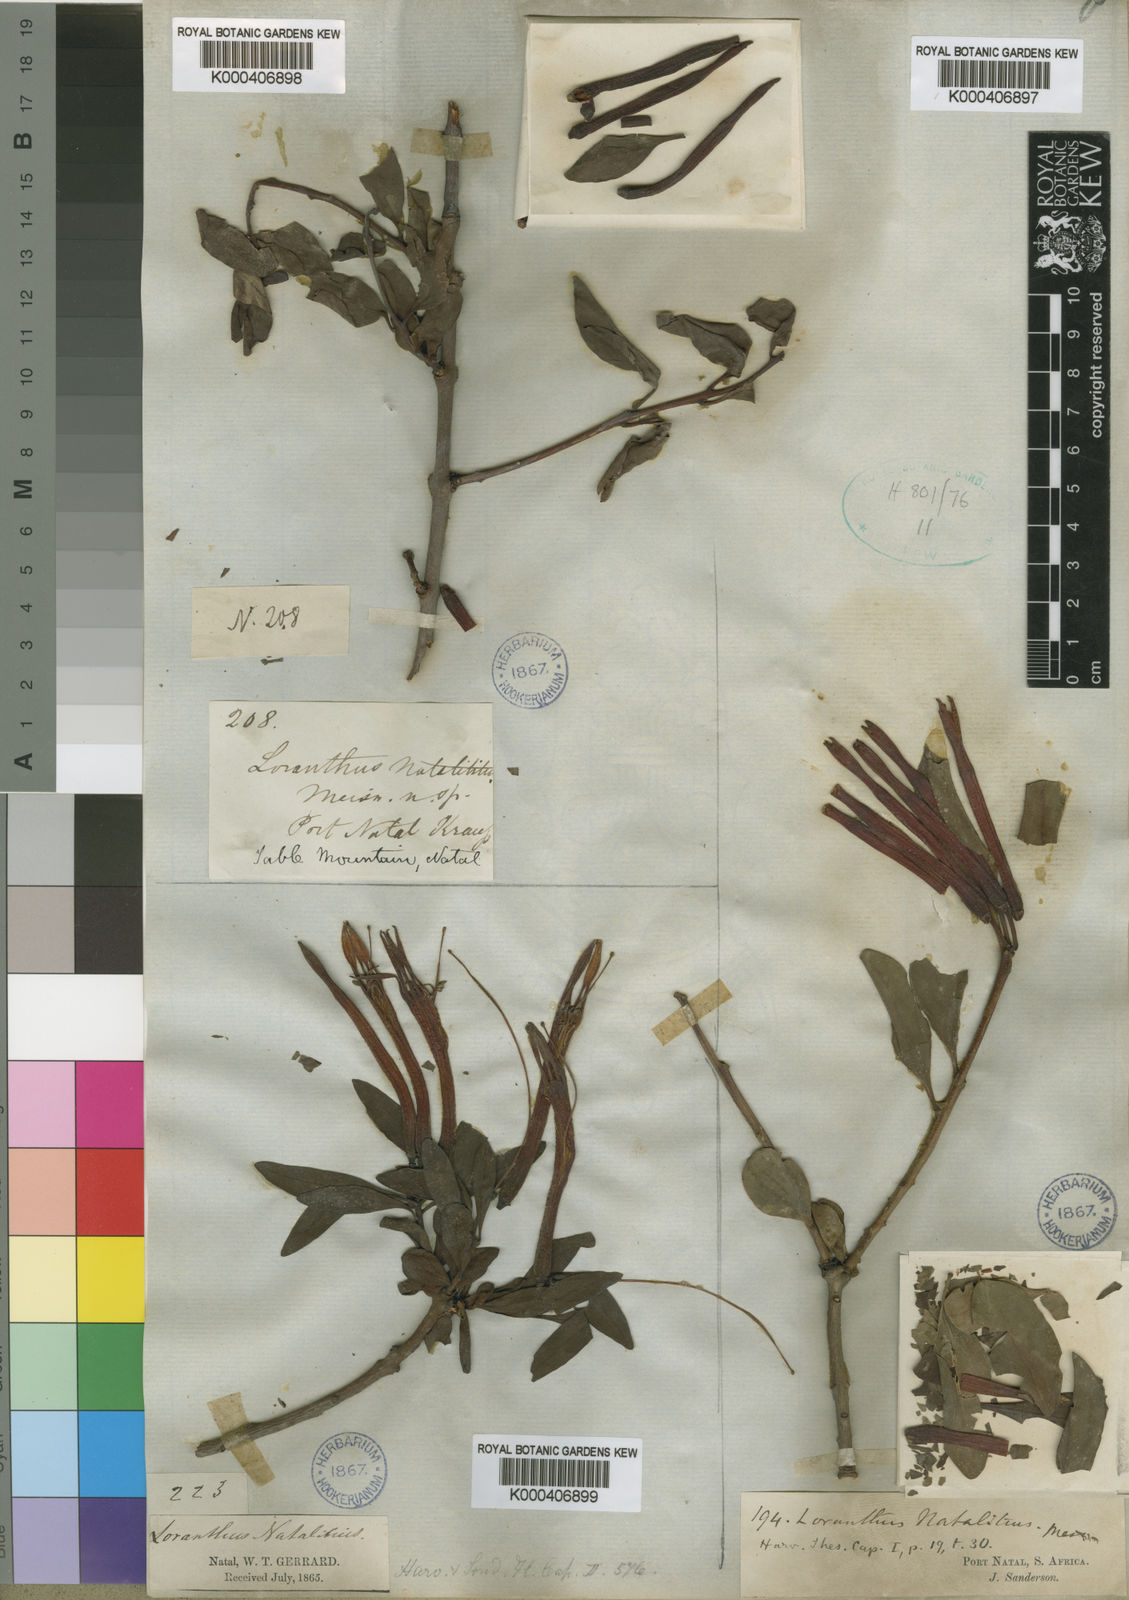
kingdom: Plantae
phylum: Tracheophyta
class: Magnoliopsida
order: Santalales
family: Loranthaceae
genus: Agelanthus
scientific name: Agelanthus natalitius
